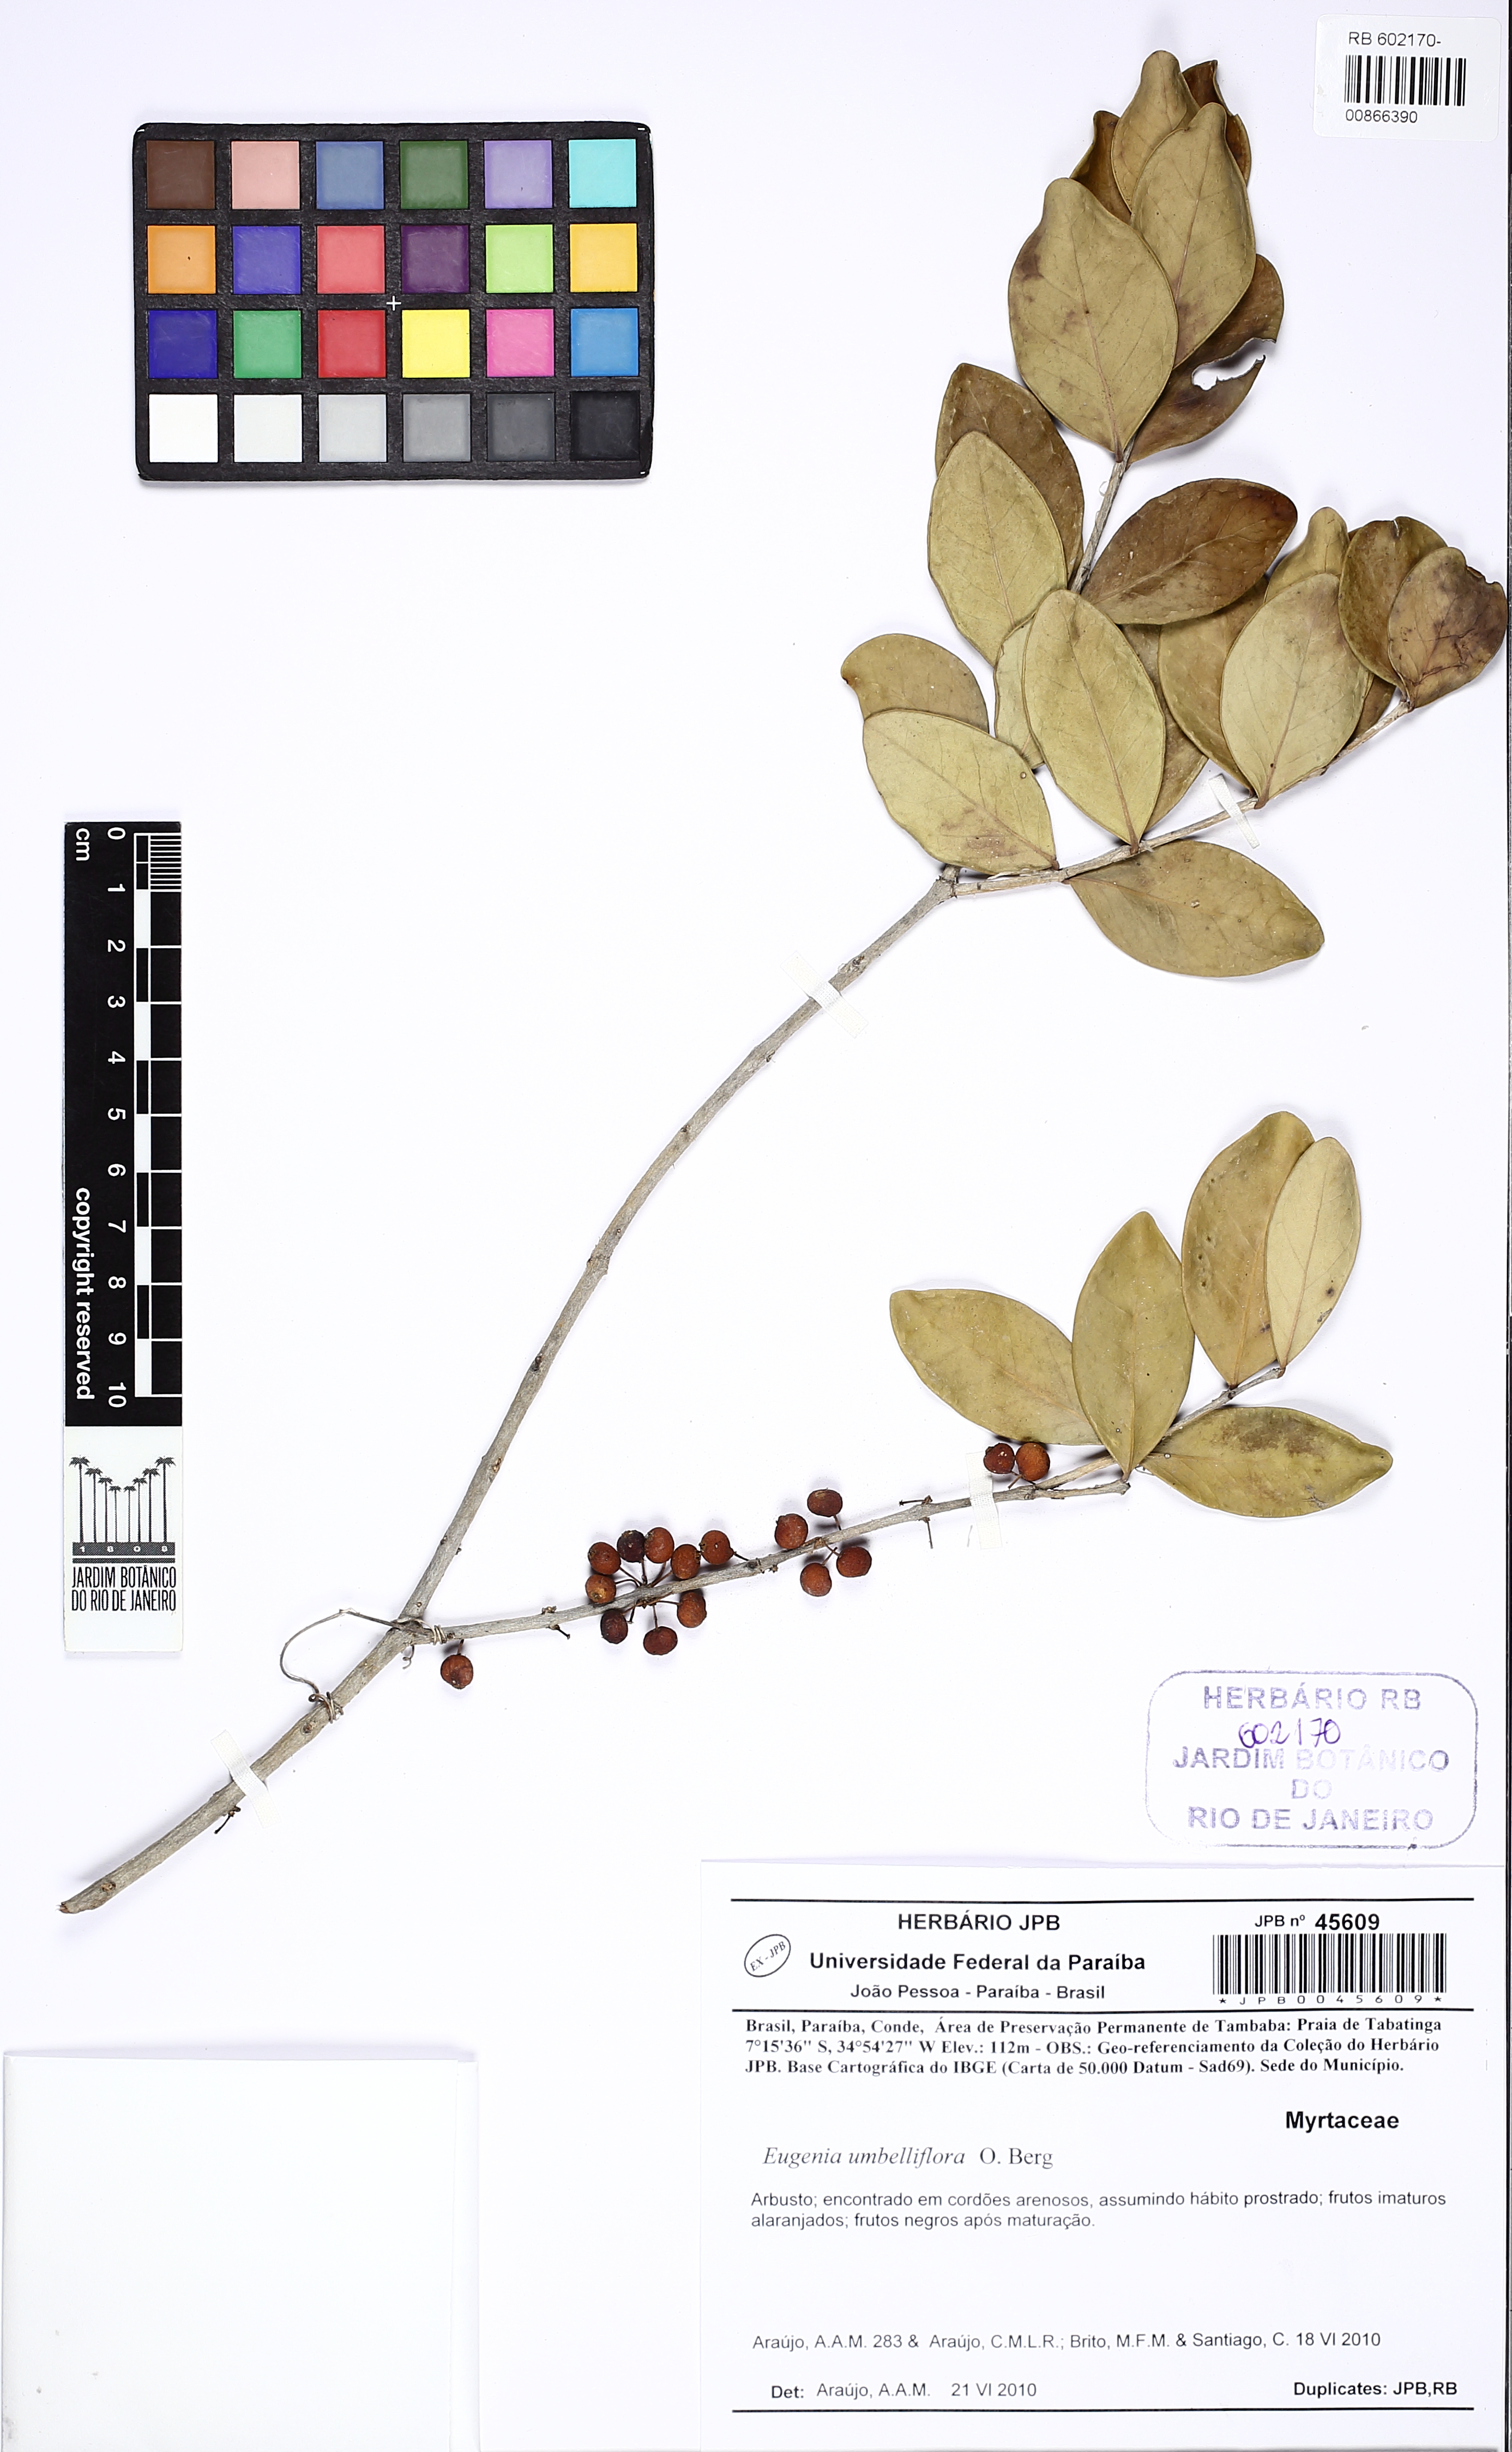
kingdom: Plantae
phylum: Tracheophyta
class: Magnoliopsida
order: Myrtales
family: Myrtaceae
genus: Eugenia
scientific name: Eugenia umbelliflora
